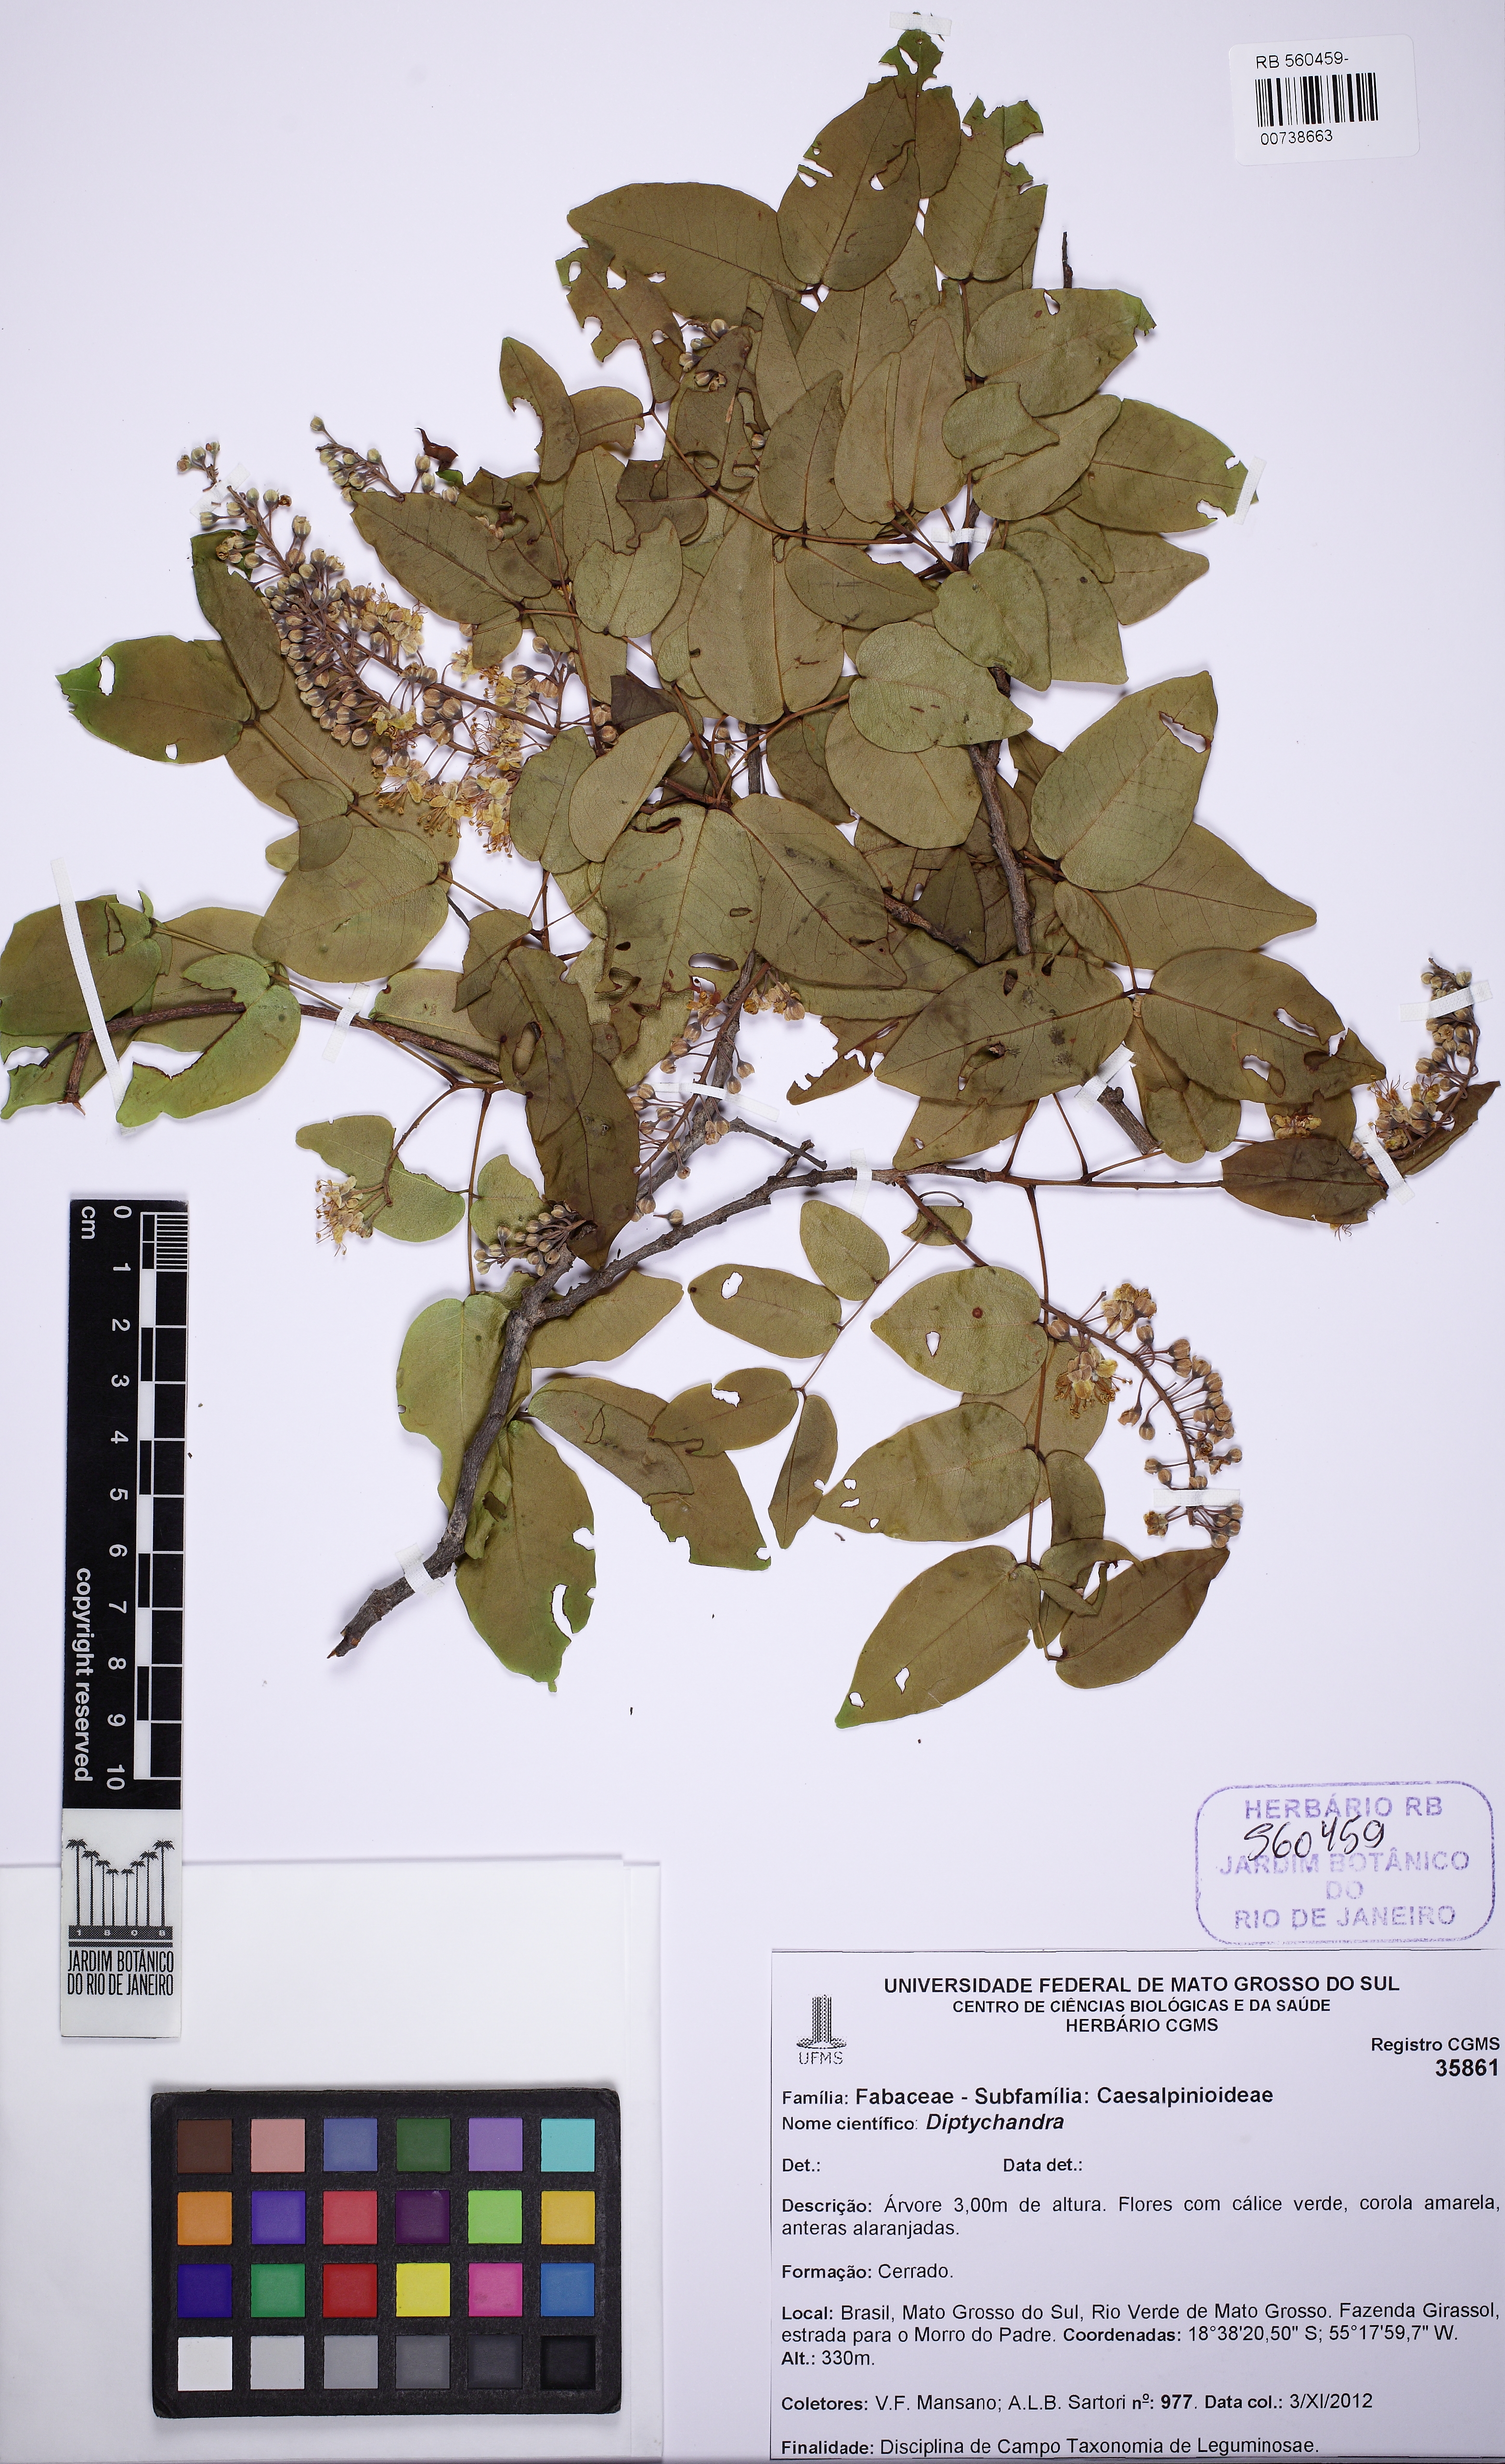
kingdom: Plantae
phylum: Tracheophyta
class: Magnoliopsida
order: Fabales
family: Fabaceae
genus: Diptychandra
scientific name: Diptychandra aurantiaca
